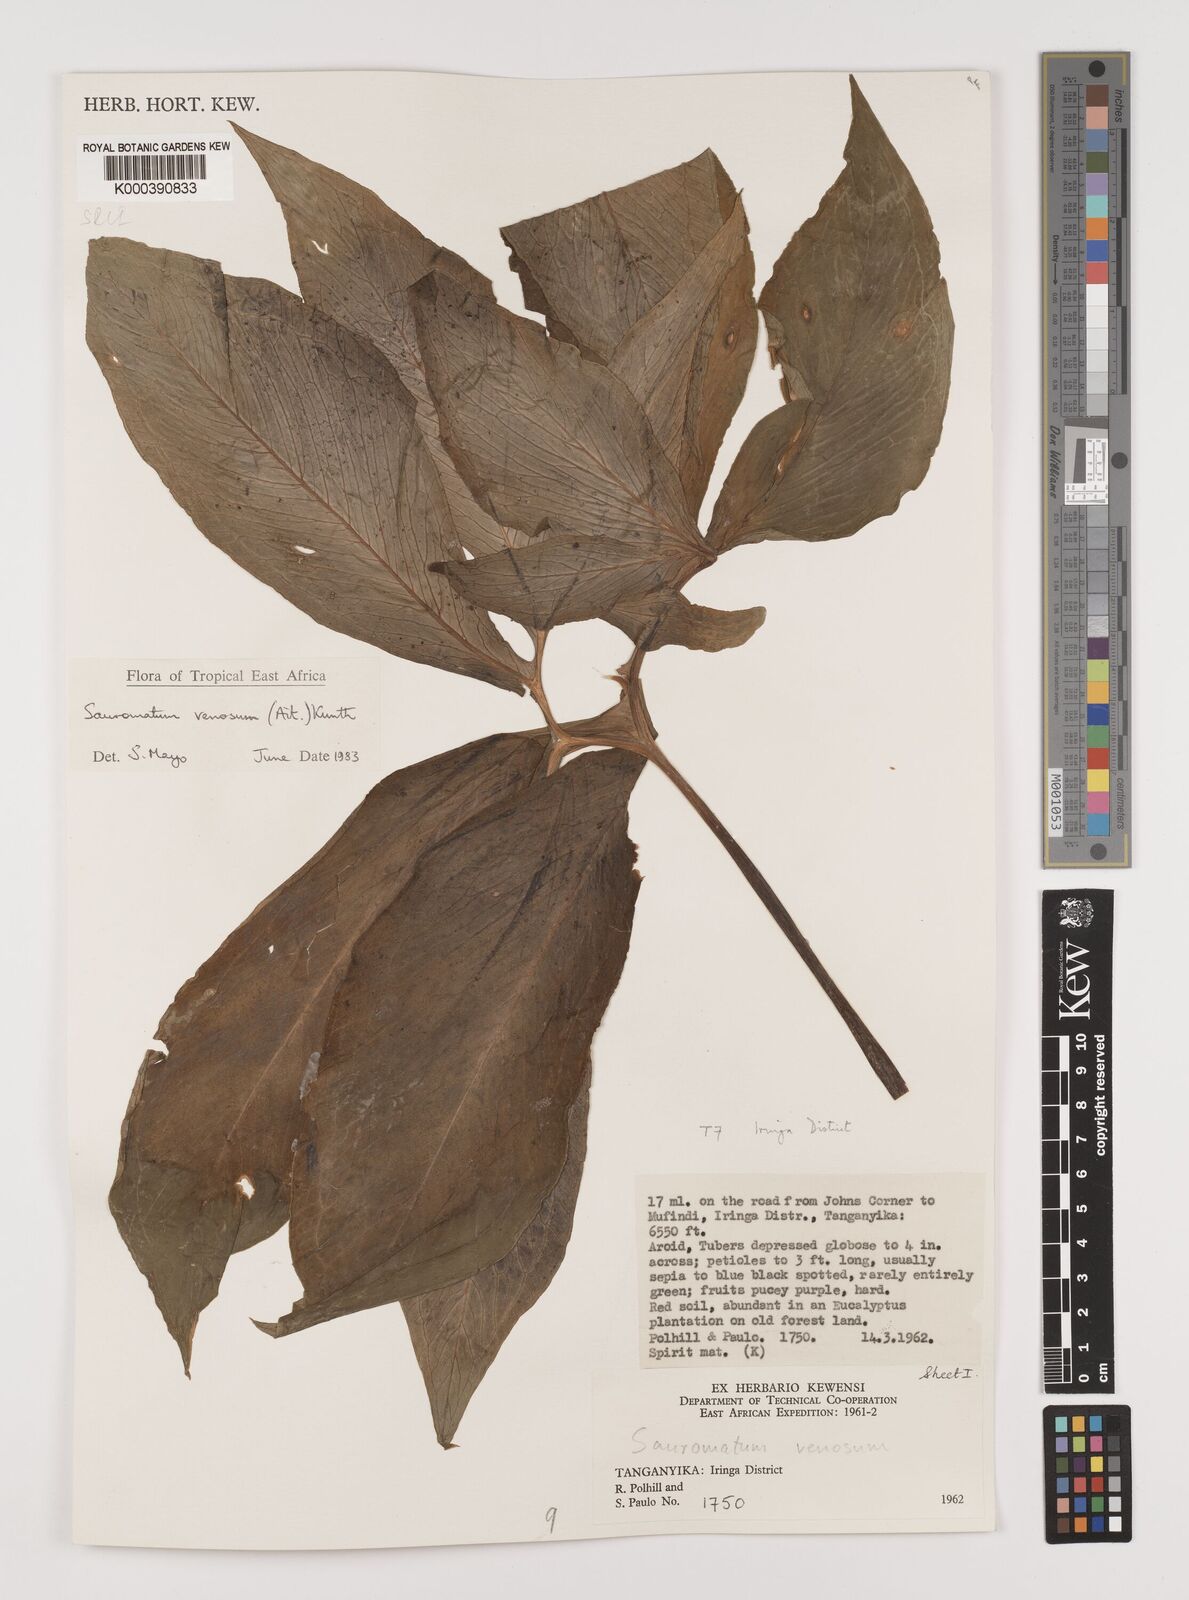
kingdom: Plantae
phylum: Tracheophyta
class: Liliopsida
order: Alismatales
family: Araceae
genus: Sauromatum
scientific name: Sauromatum venosum
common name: Voodoo lily
